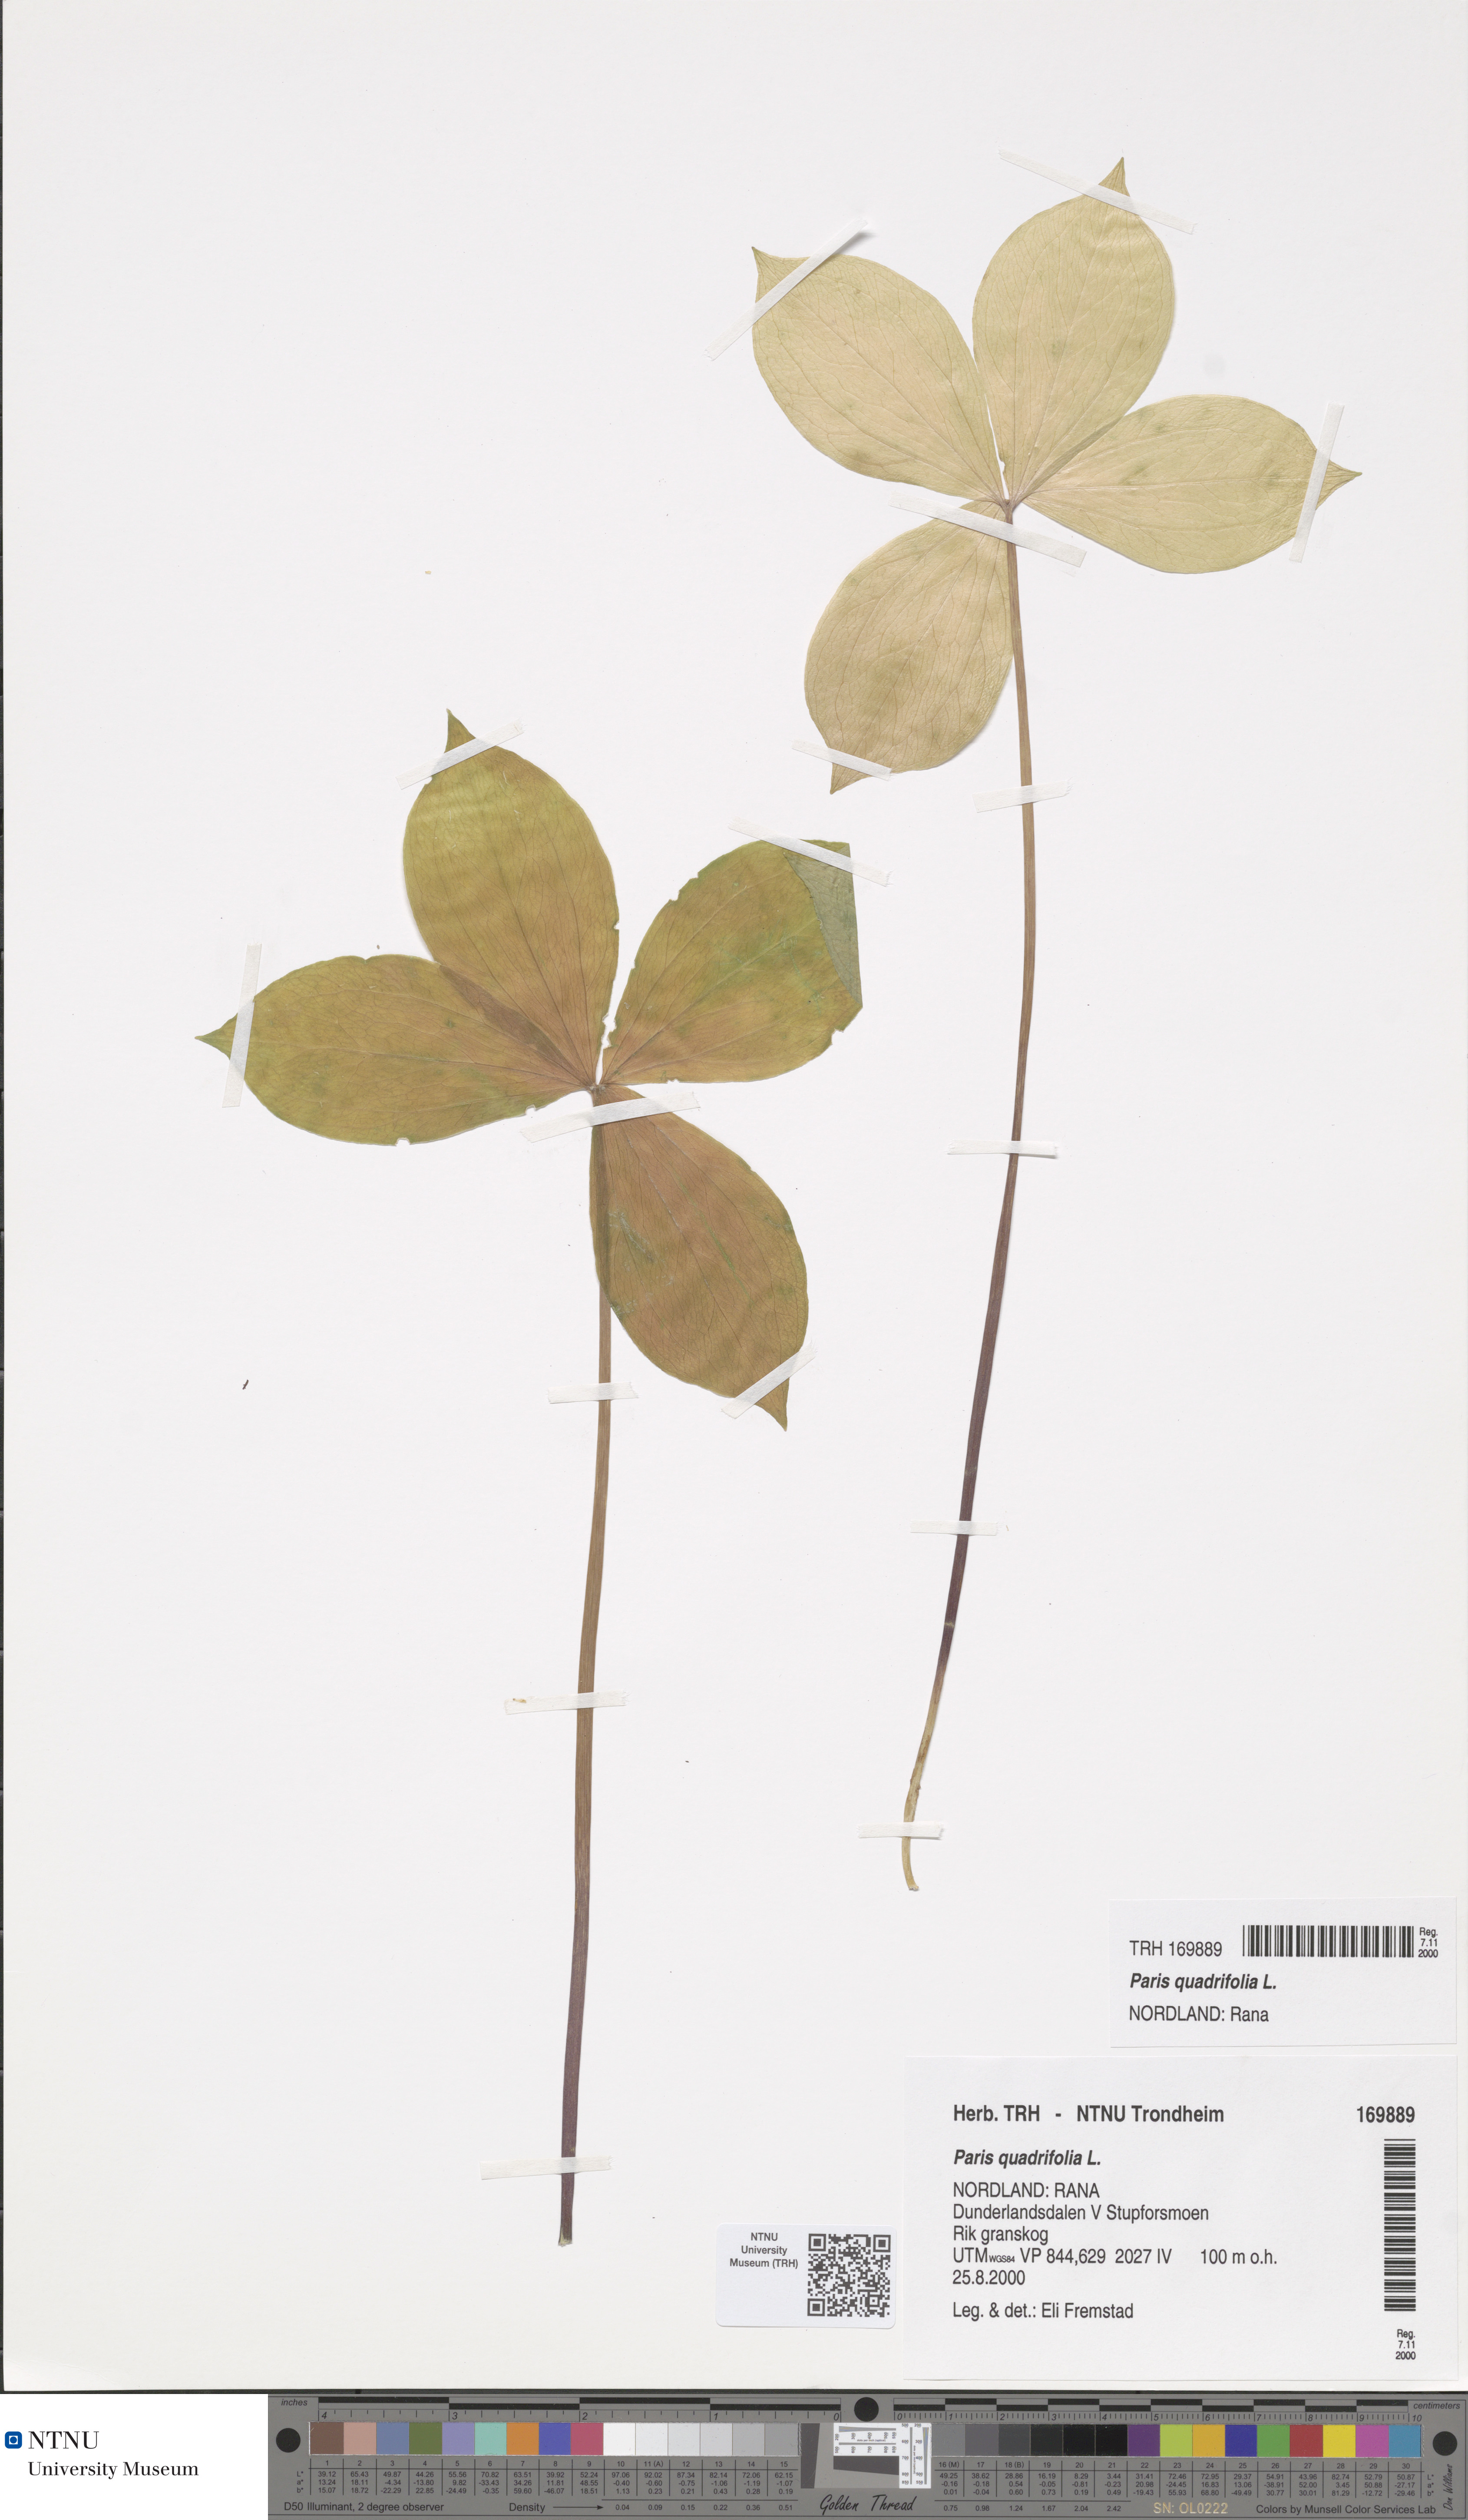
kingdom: Plantae
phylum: Tracheophyta
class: Liliopsida
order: Liliales
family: Melanthiaceae
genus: Paris
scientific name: Paris quadrifolia
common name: Herb-paris
